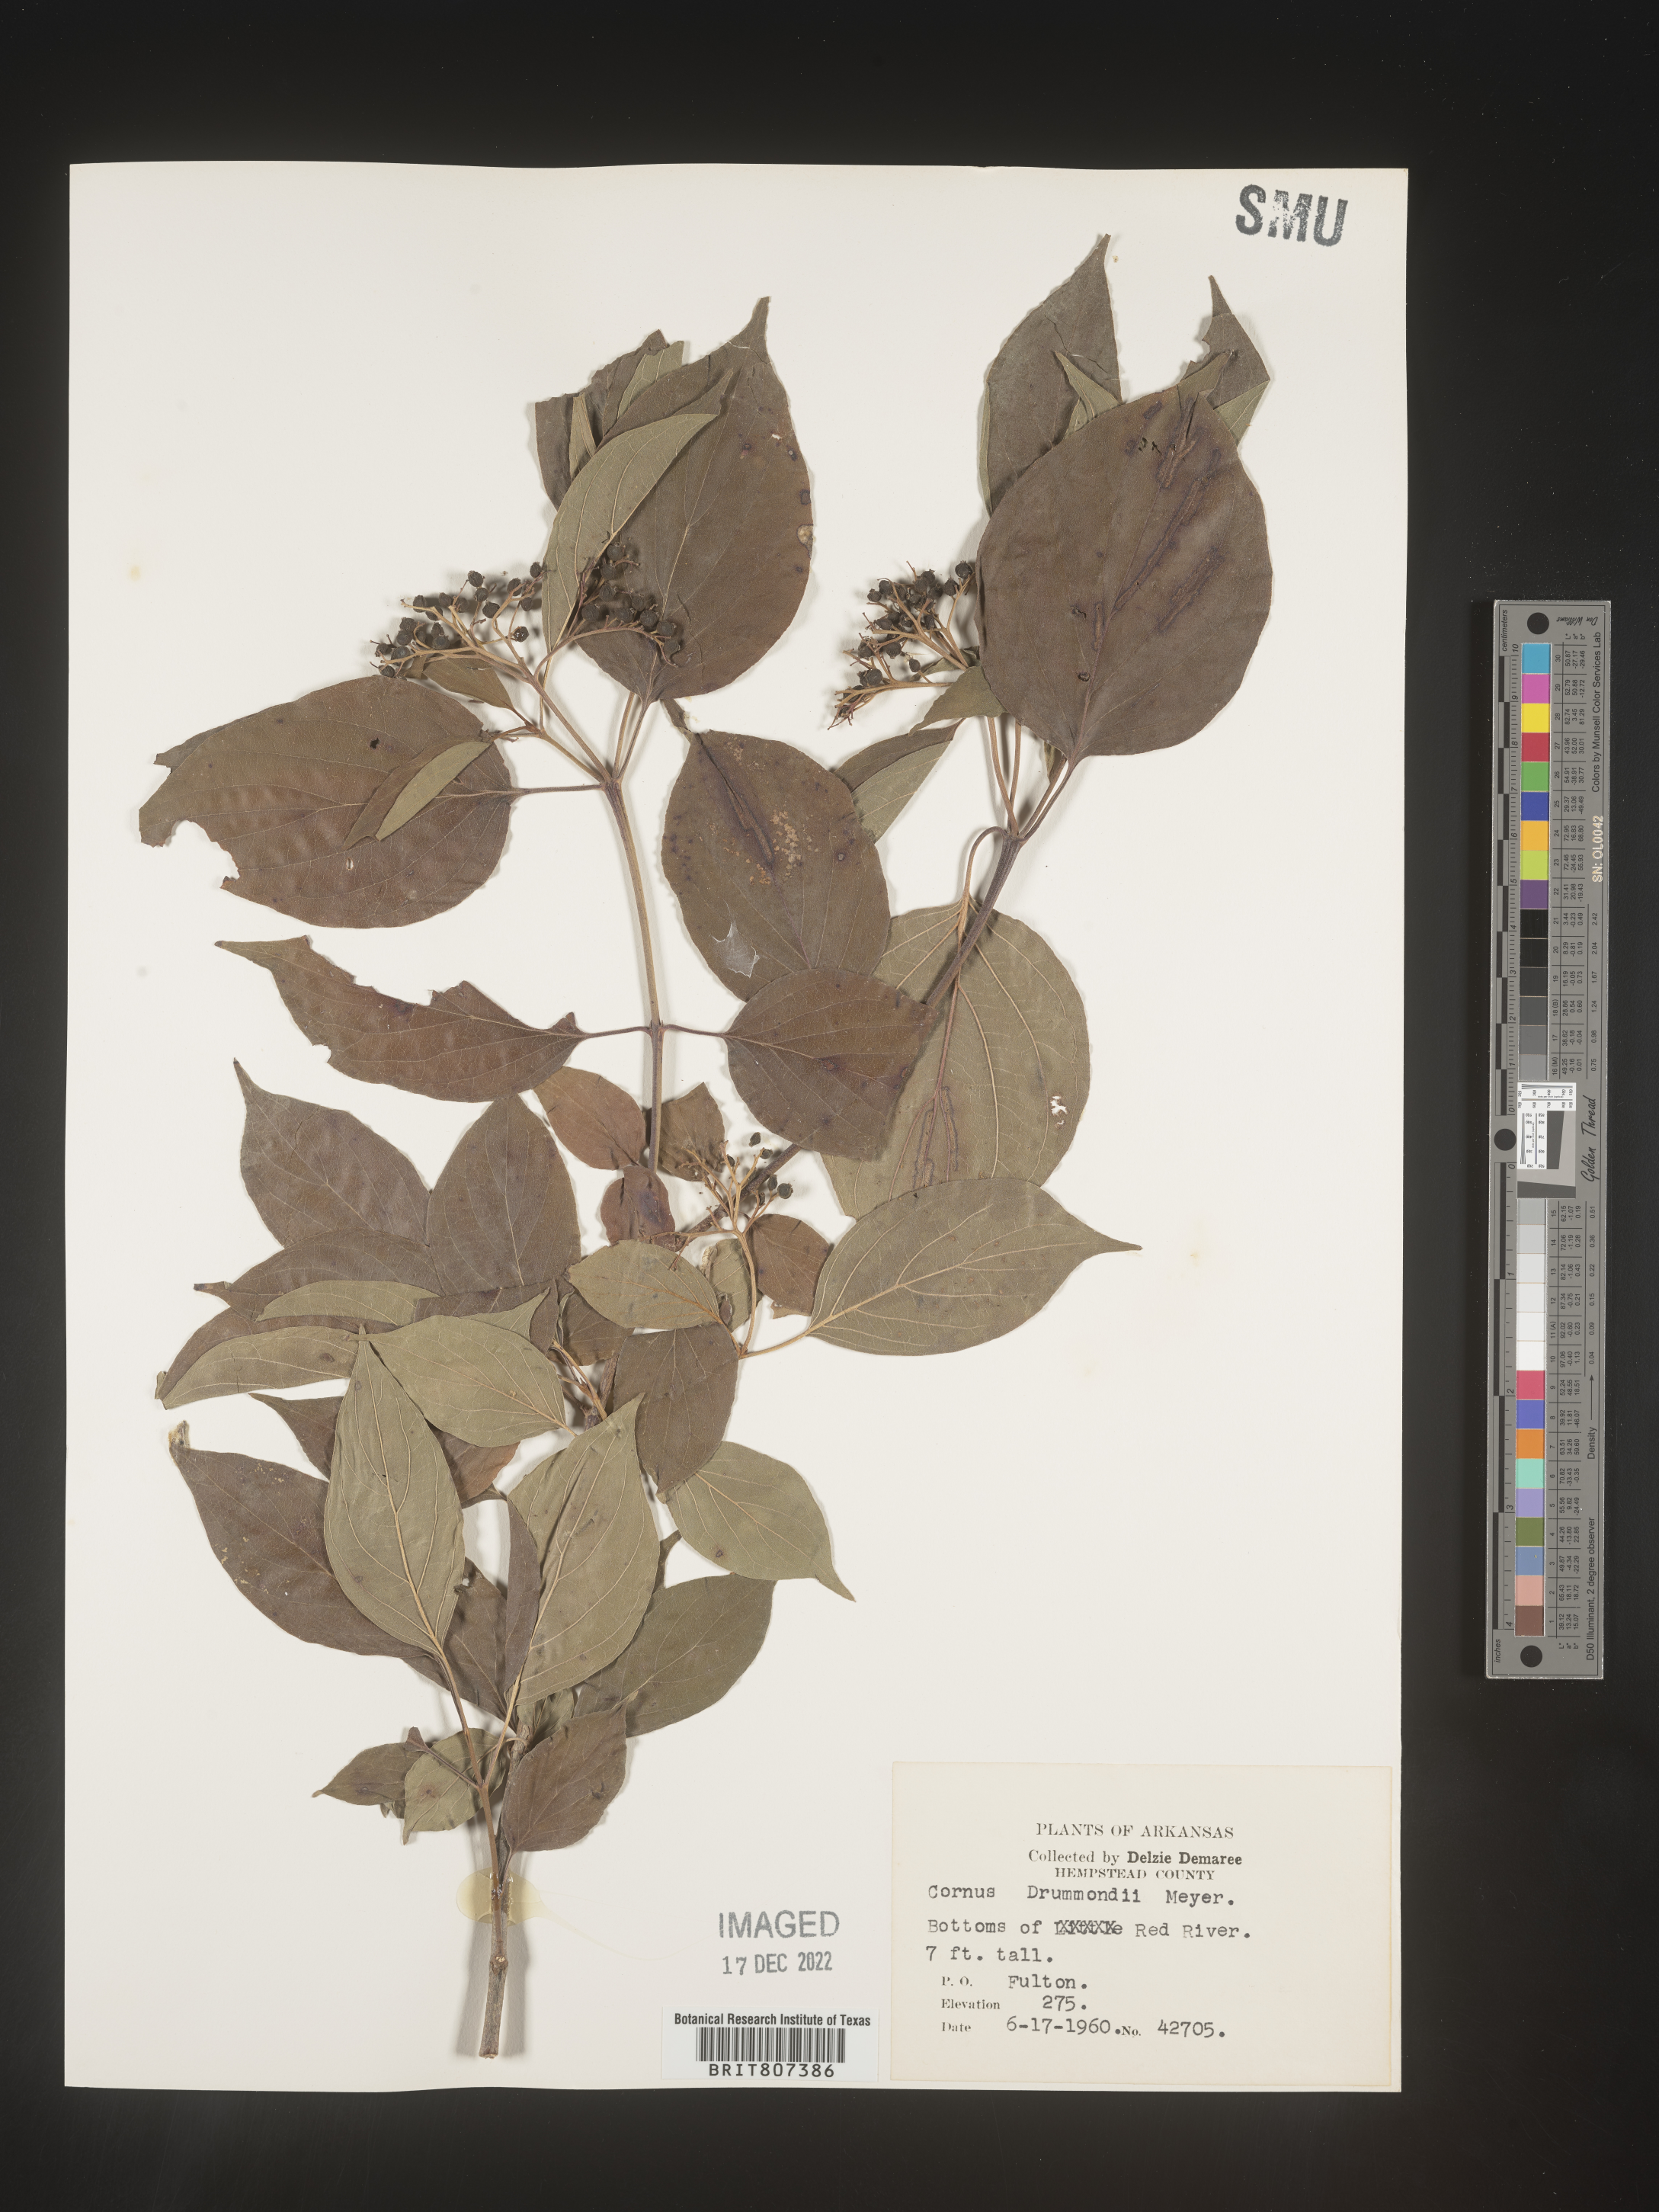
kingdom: Plantae
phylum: Tracheophyta
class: Magnoliopsida
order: Cornales
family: Cornaceae
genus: Cornus
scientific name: Cornus drummondii
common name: Rough-leaf dogwood
